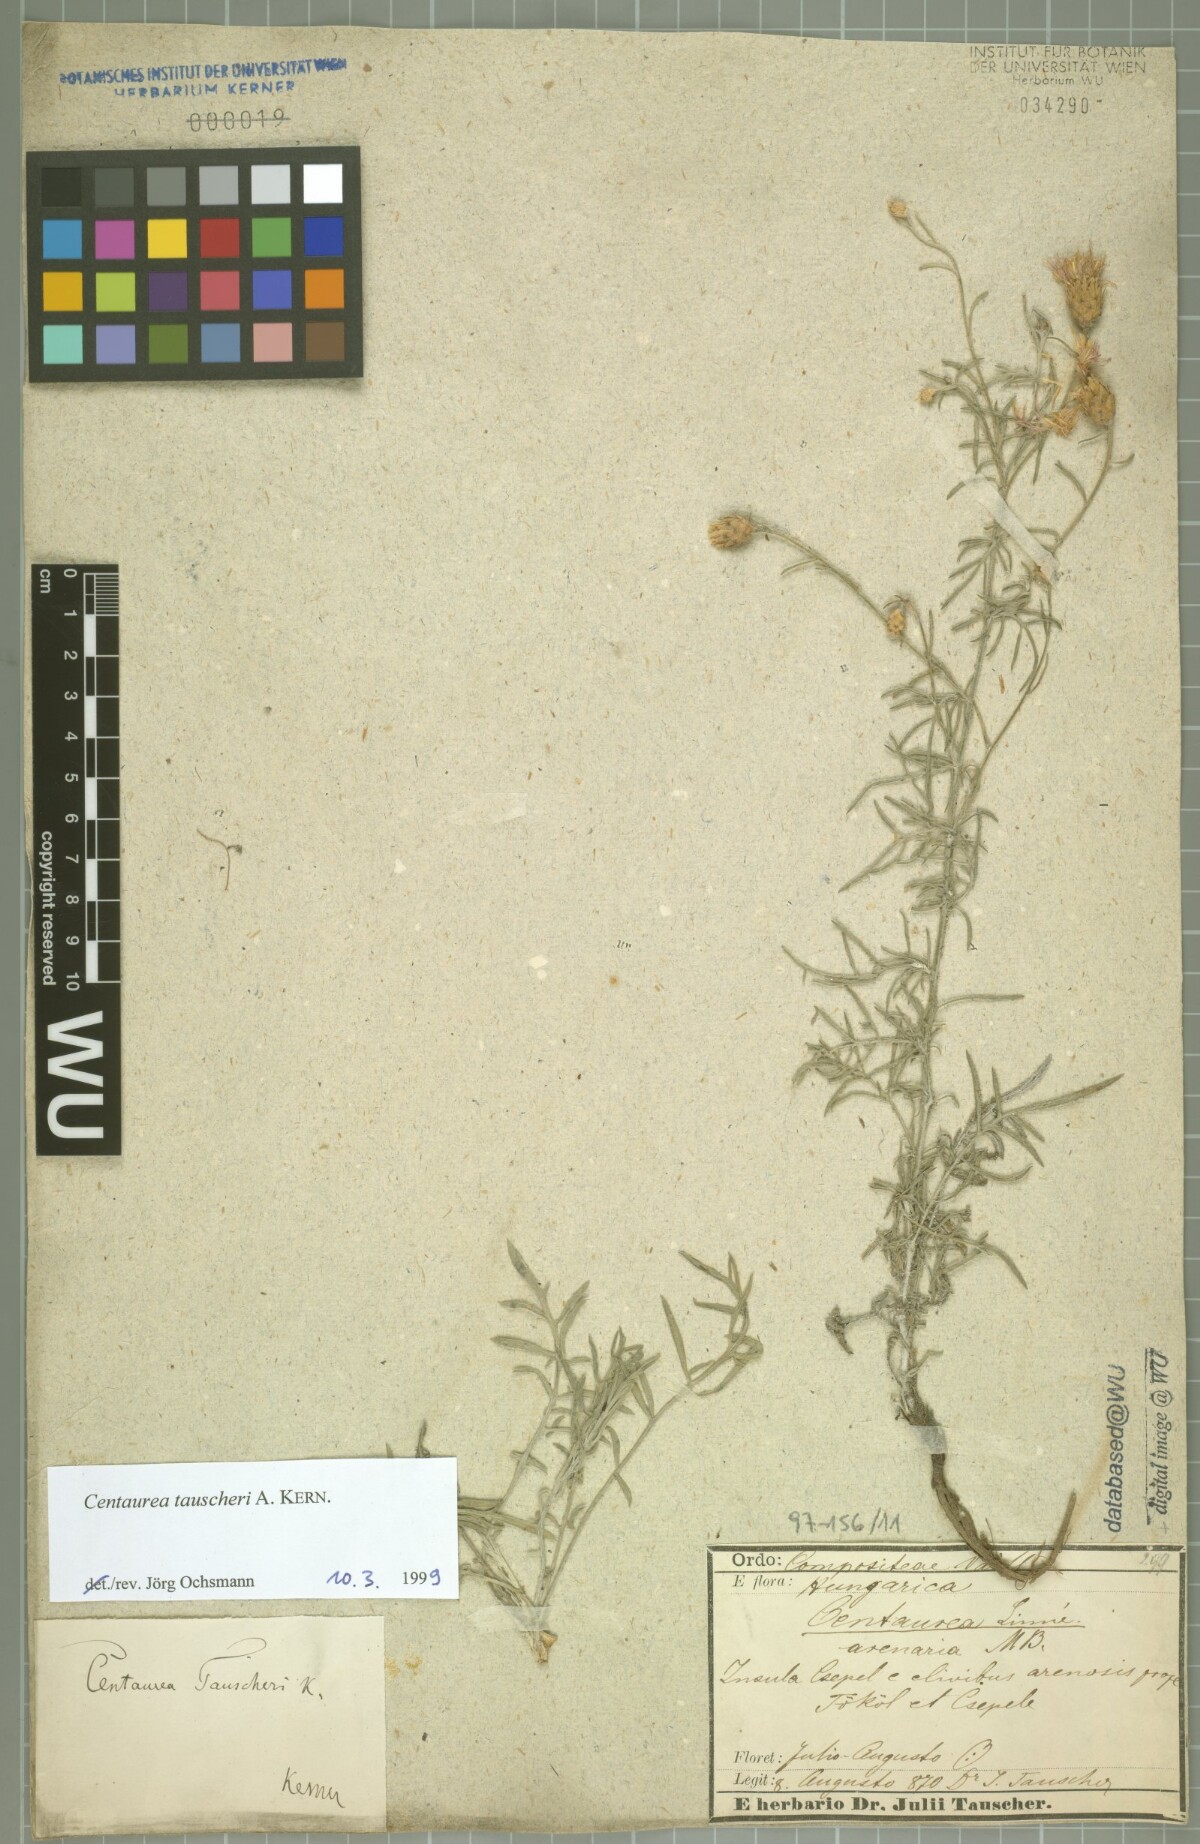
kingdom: Plantae
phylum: Tracheophyta
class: Magnoliopsida
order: Asterales
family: Asteraceae
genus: Centaurea
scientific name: Centaurea tauscheri
